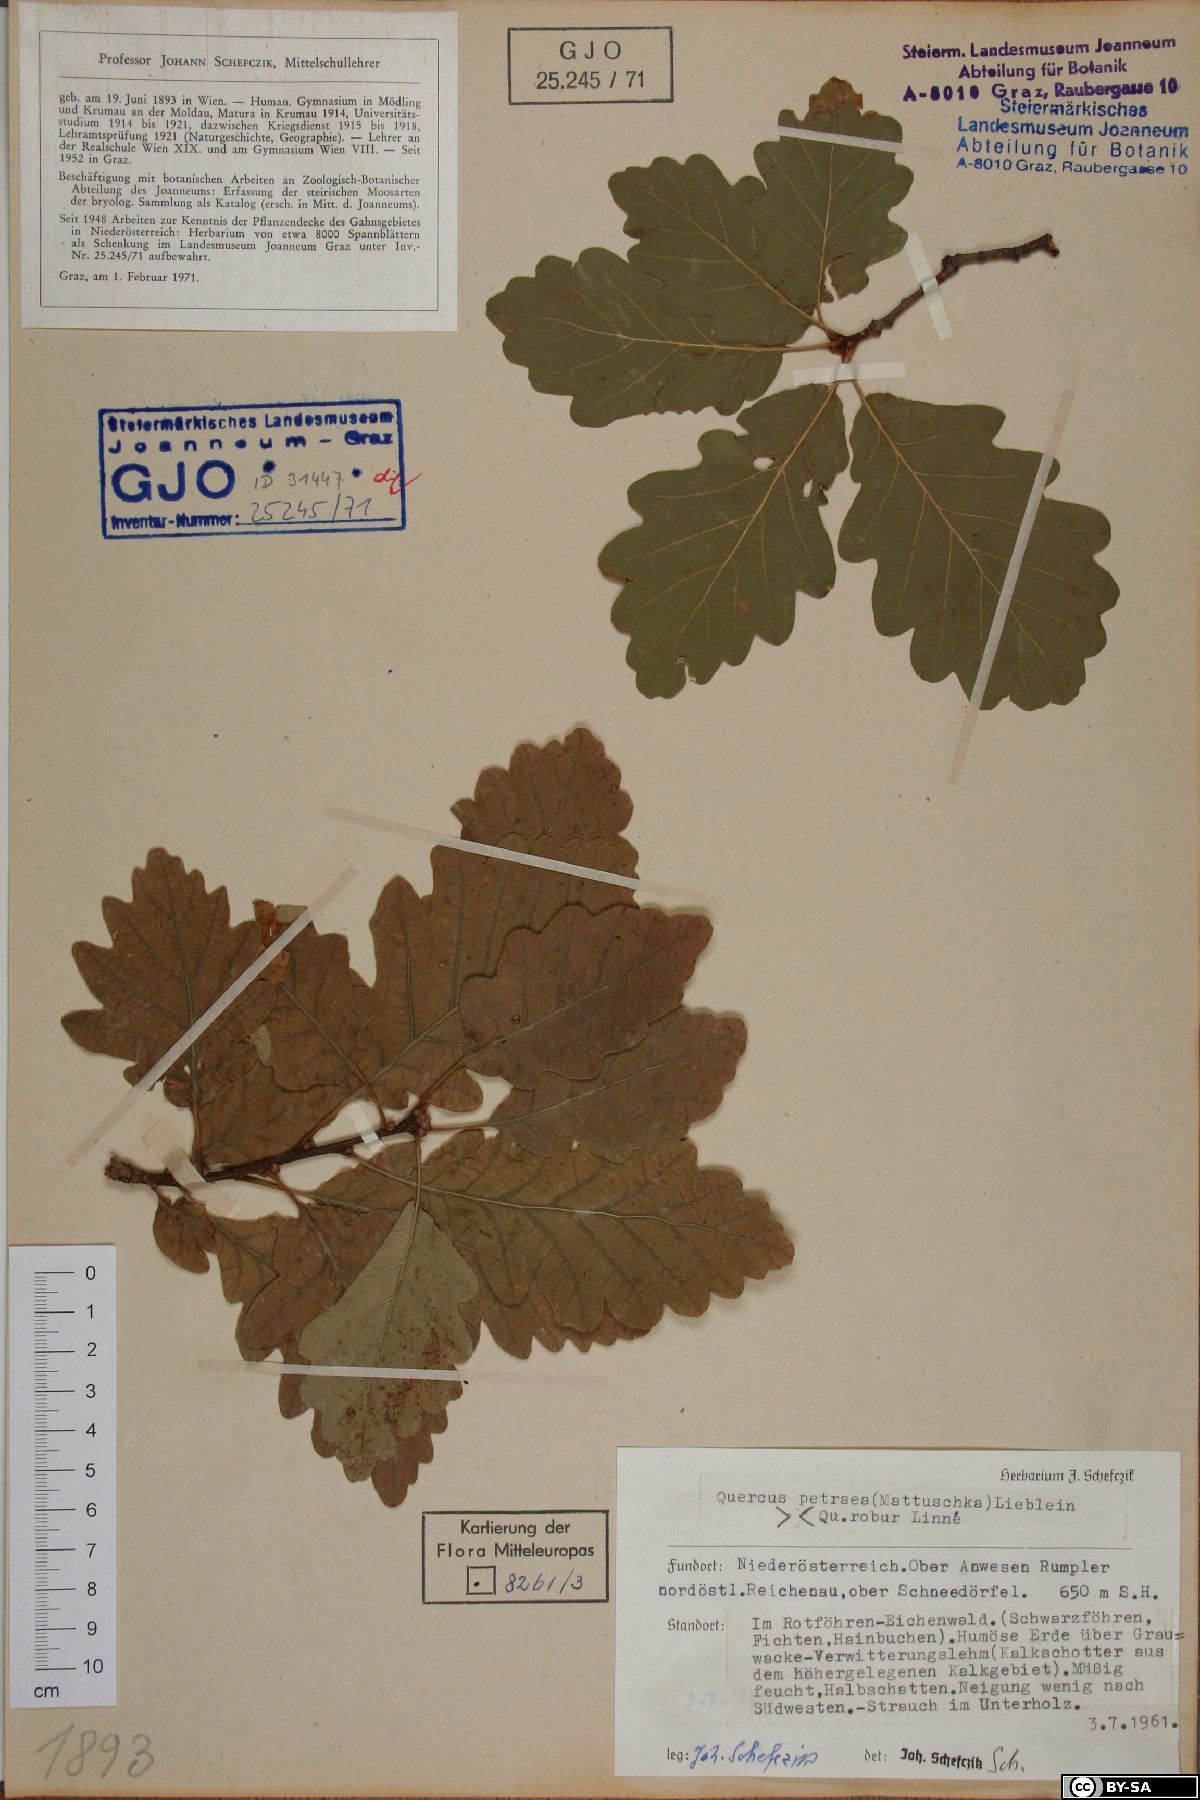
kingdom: Plantae
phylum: Tracheophyta
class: Magnoliopsida
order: Fagales
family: Fagaceae
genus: Quercus
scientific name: Quercus petraea
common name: Sessile oak
